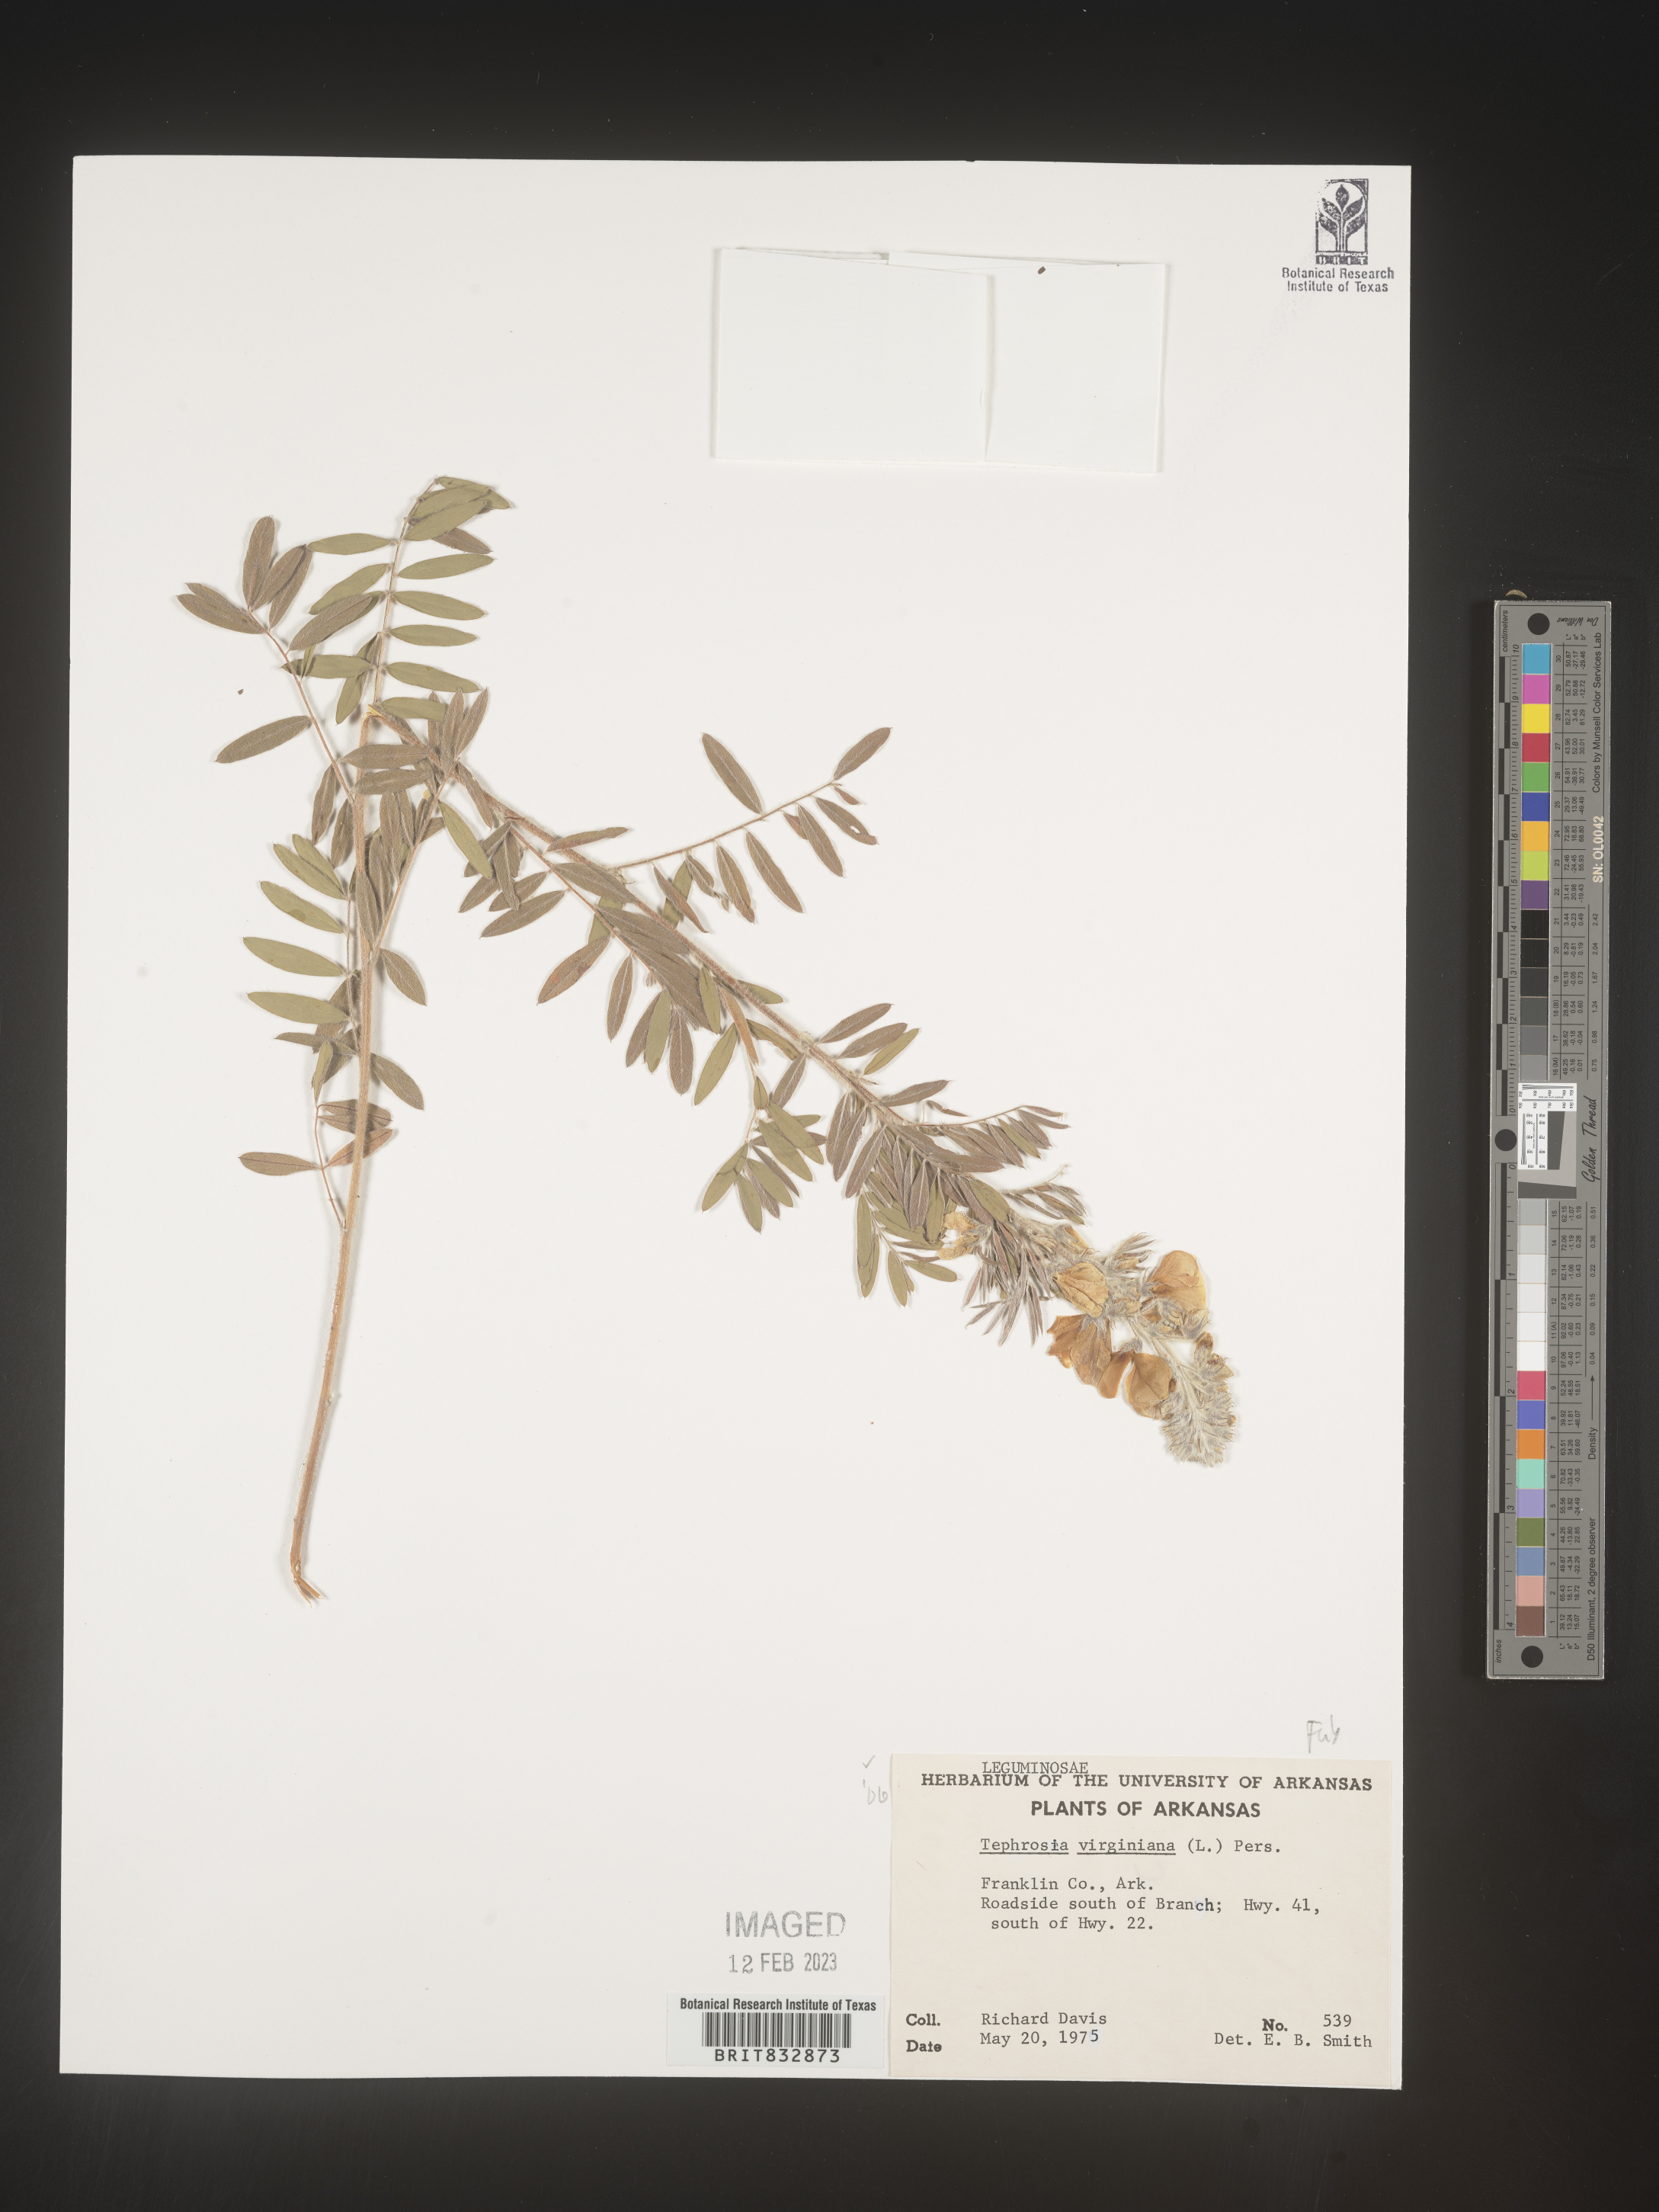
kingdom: Plantae
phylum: Tracheophyta
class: Magnoliopsida
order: Fabales
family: Fabaceae
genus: Tephrosia
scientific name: Tephrosia virginiana
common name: Rabbit-pea
